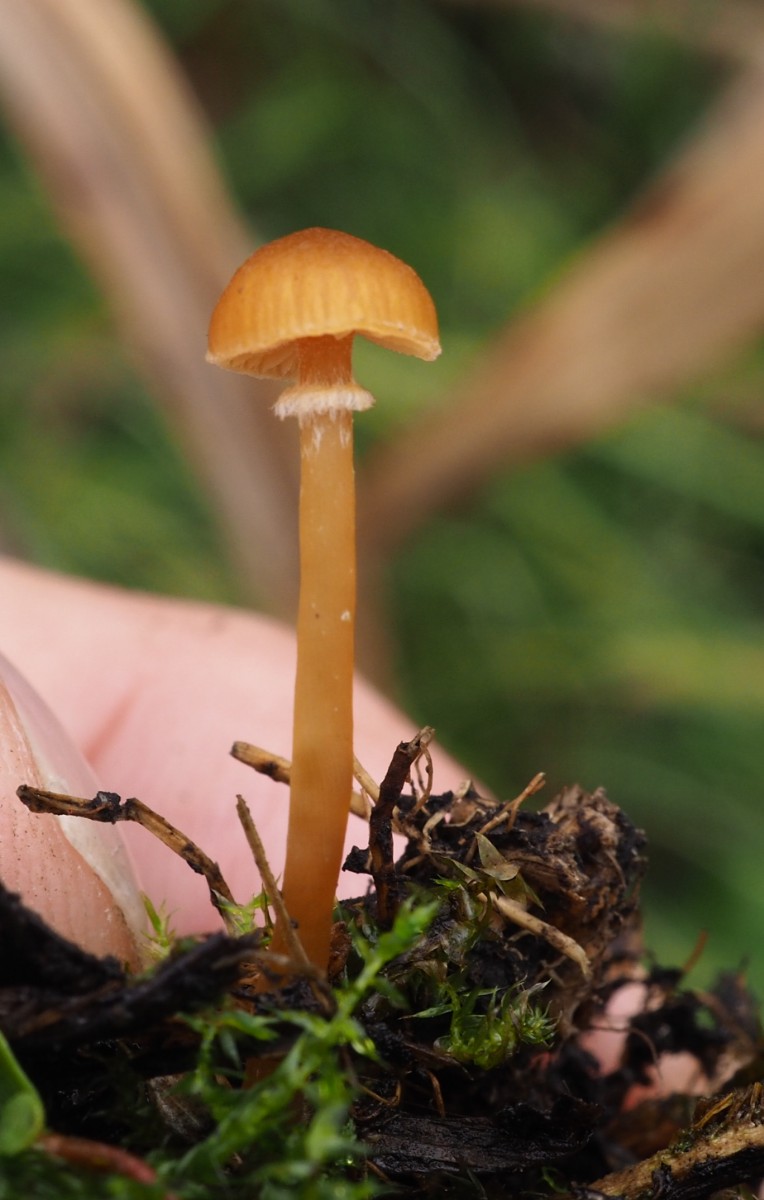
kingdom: Fungi
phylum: Basidiomycota
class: Agaricomycetes
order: Agaricales
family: Hymenogastraceae
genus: Galerina
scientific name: Galerina jaapii
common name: hvidbæltet hjelmhat
